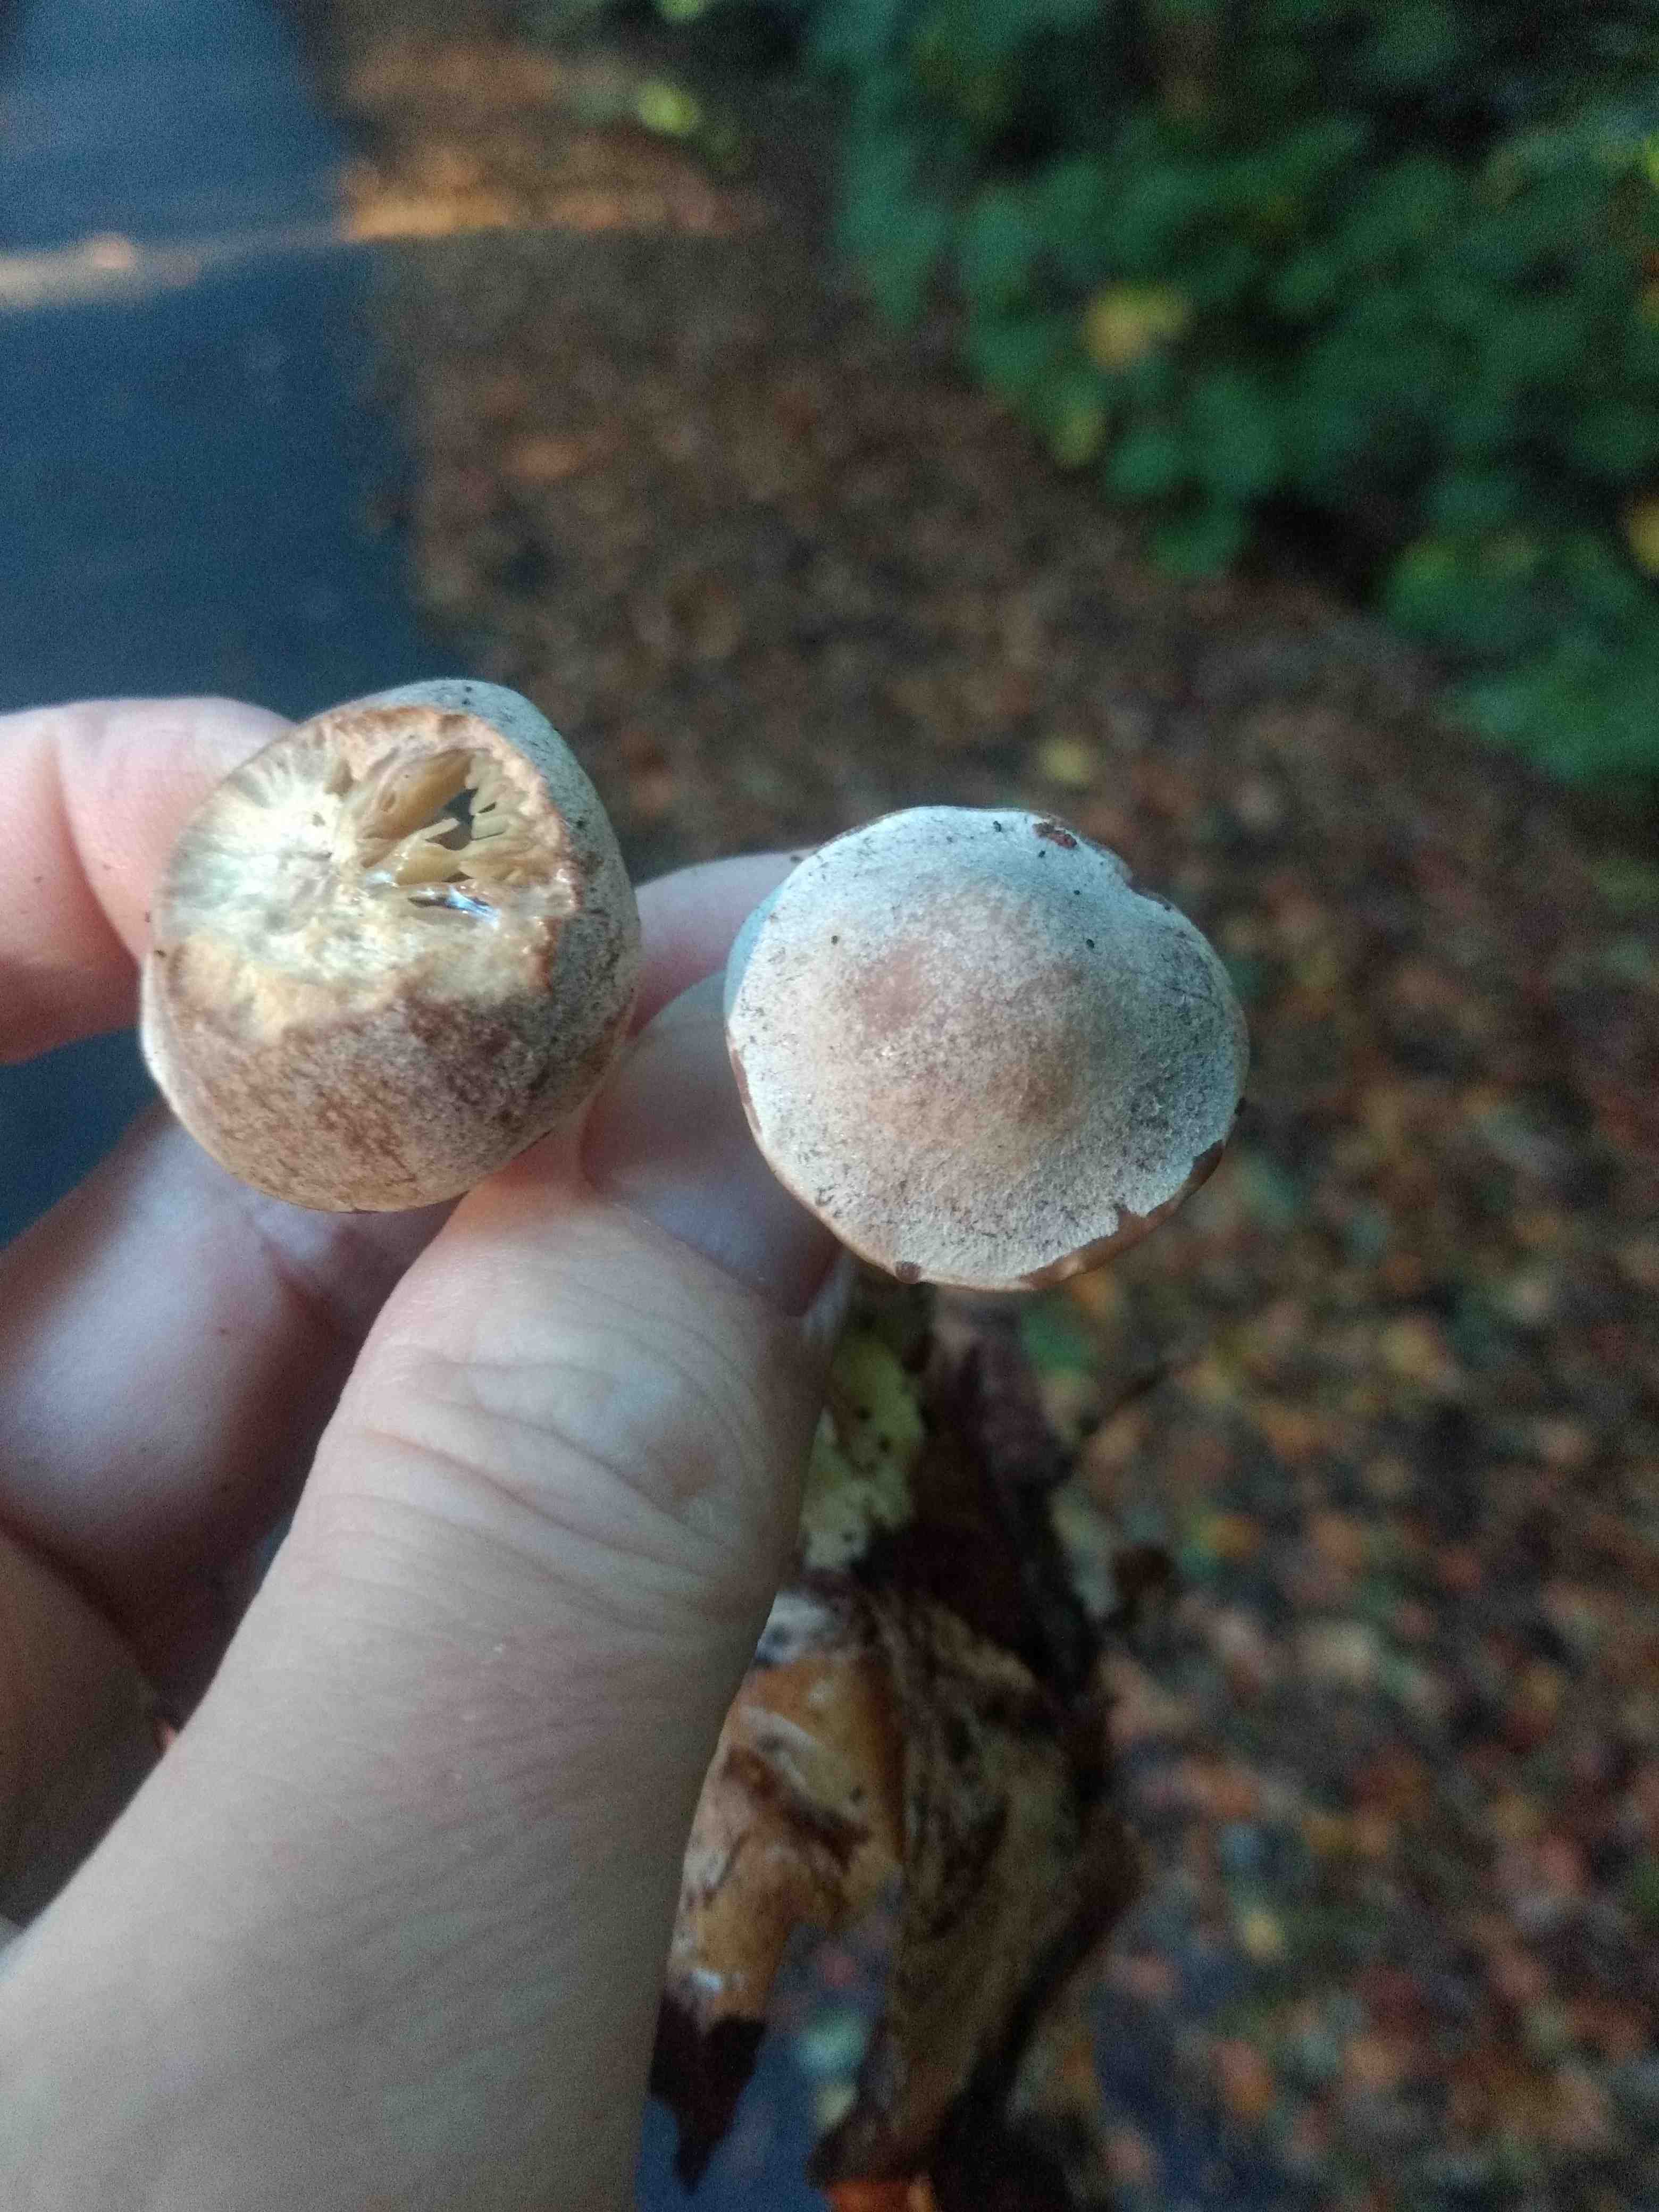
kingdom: Fungi
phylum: Basidiomycota
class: Agaricomycetes
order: Agaricales
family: Omphalotaceae
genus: Collybiopsis
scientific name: Collybiopsis peronata
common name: bestøvlet fladhat
